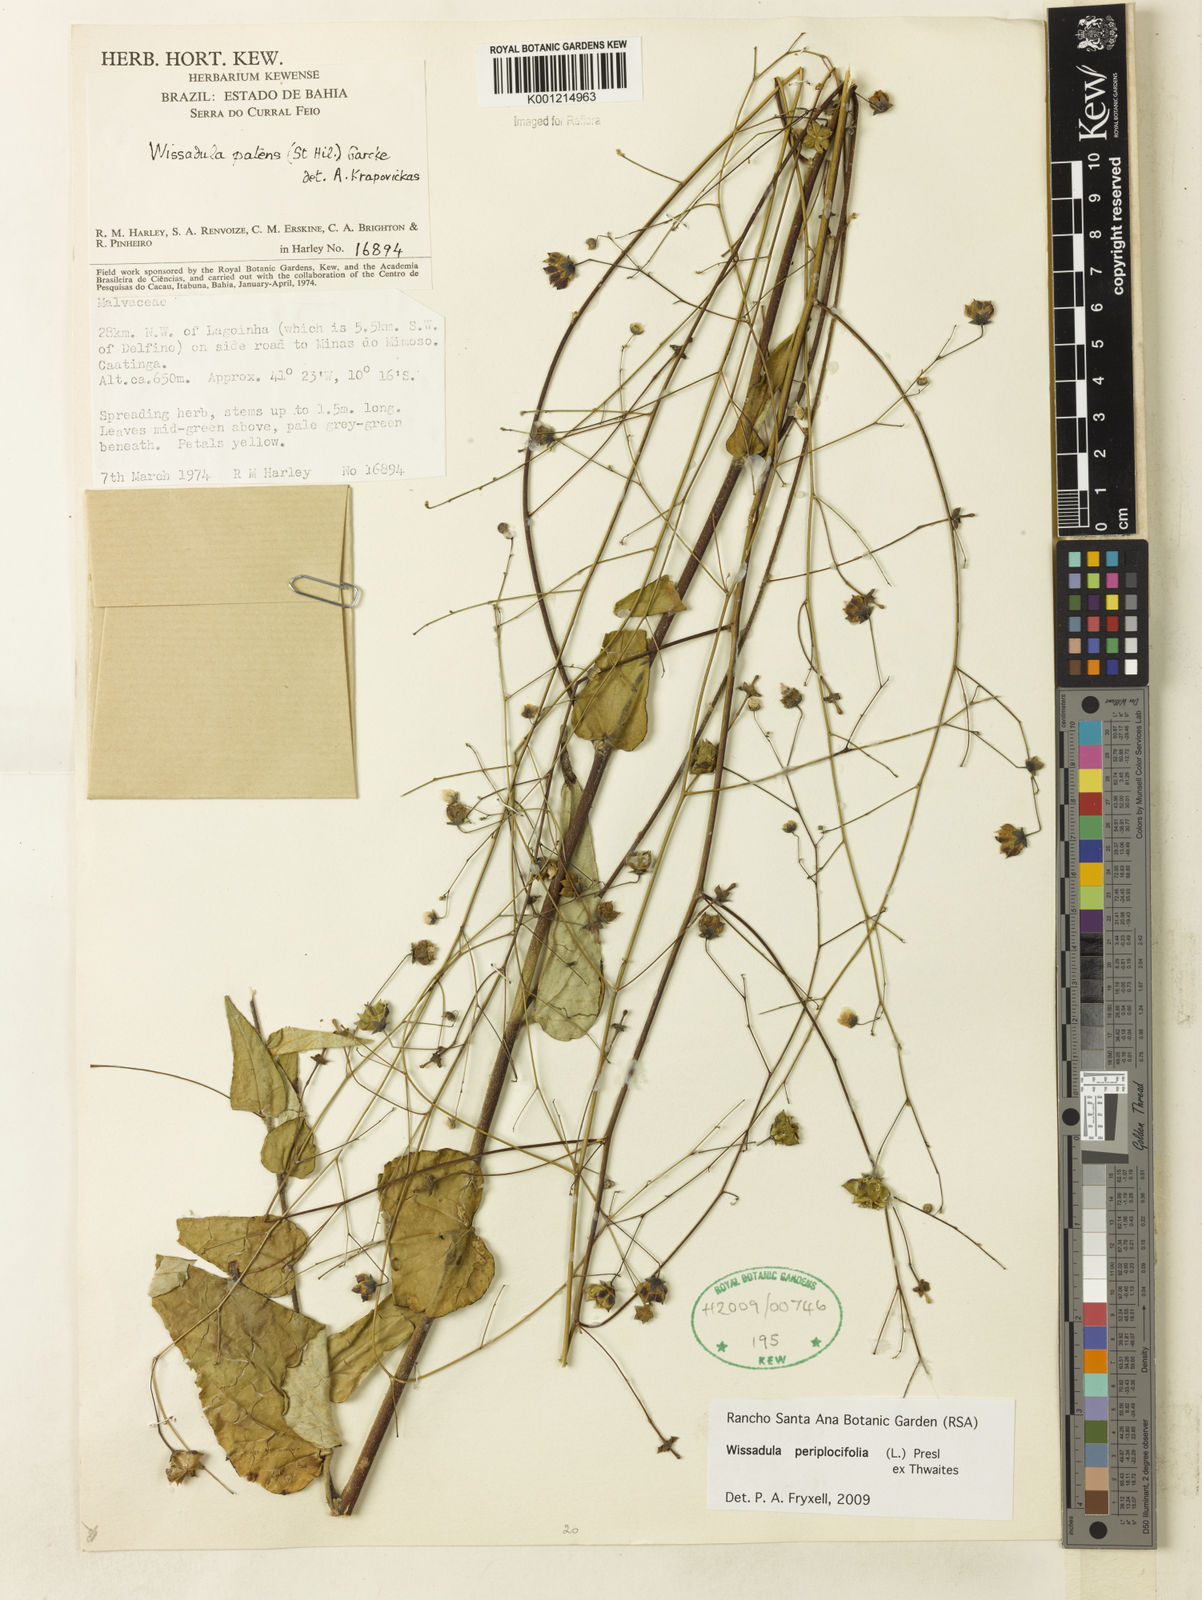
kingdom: Plantae
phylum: Tracheophyta
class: Magnoliopsida
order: Malvales
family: Malvaceae
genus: Wissadula
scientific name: Wissadula periplocifolia
